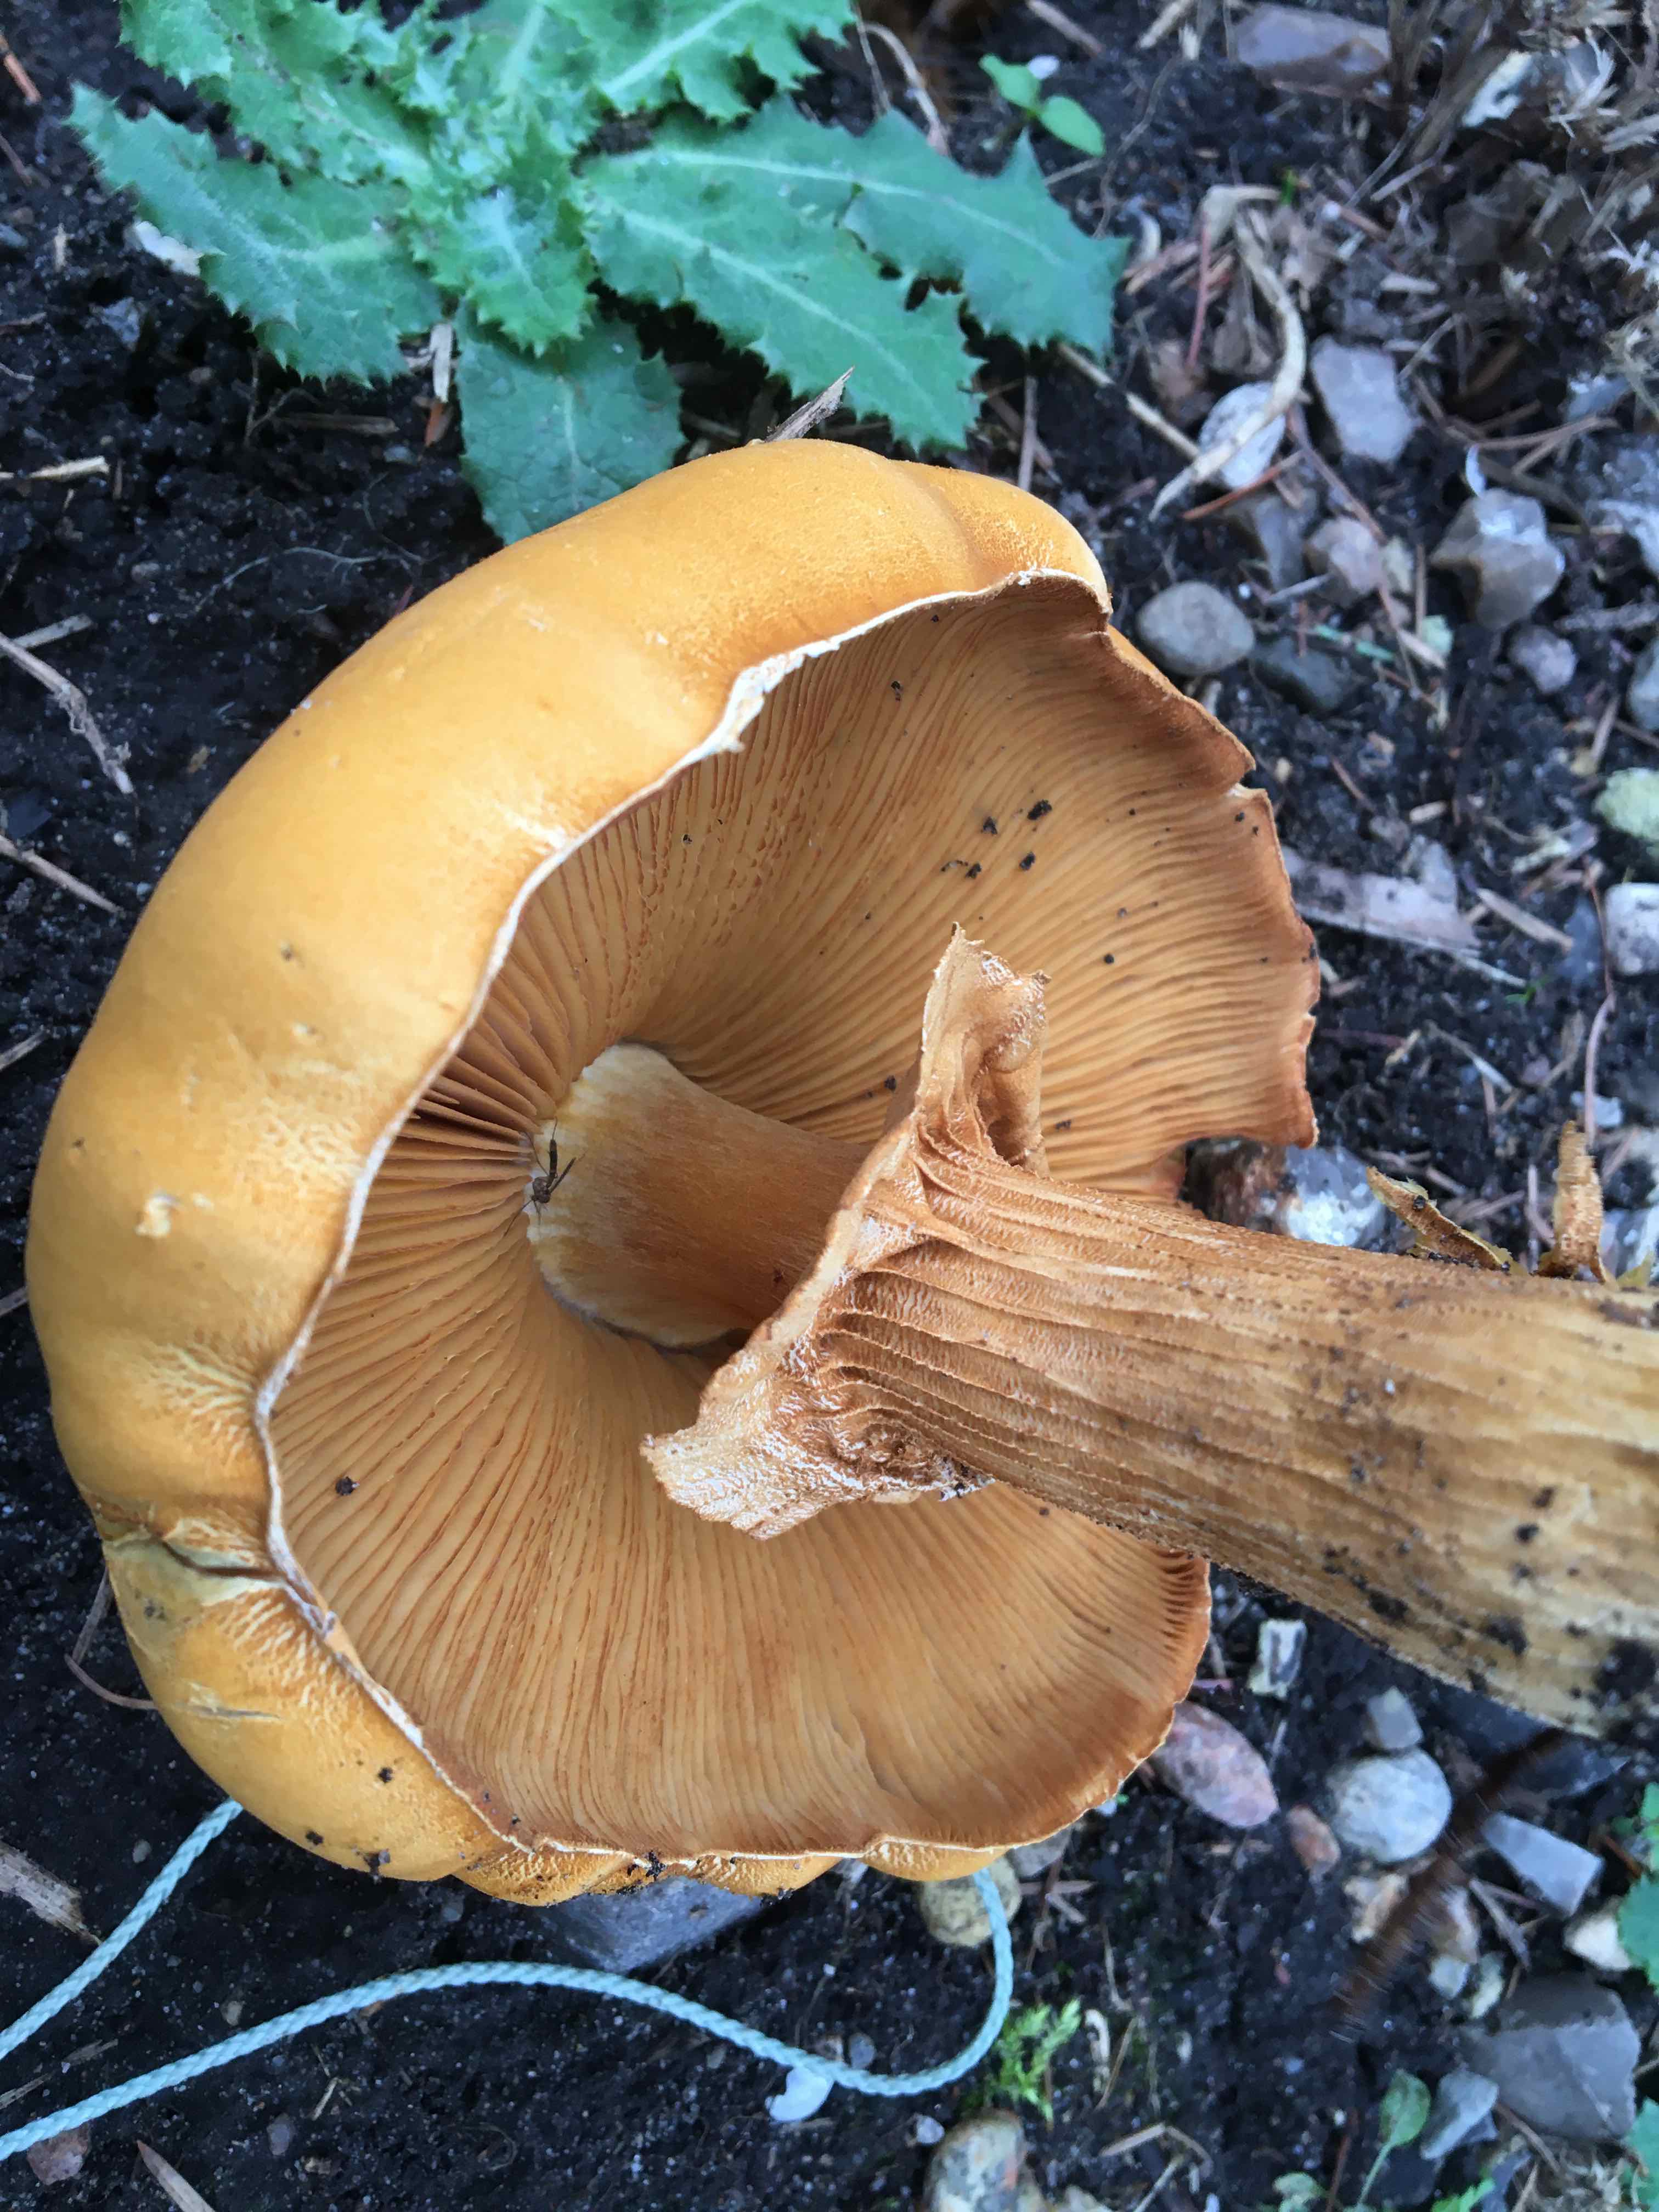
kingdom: Fungi
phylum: Basidiomycota
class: Agaricomycetes
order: Agaricales
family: Tricholomataceae
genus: Phaeolepiota
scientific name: Phaeolepiota aurea
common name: gyldenhat
